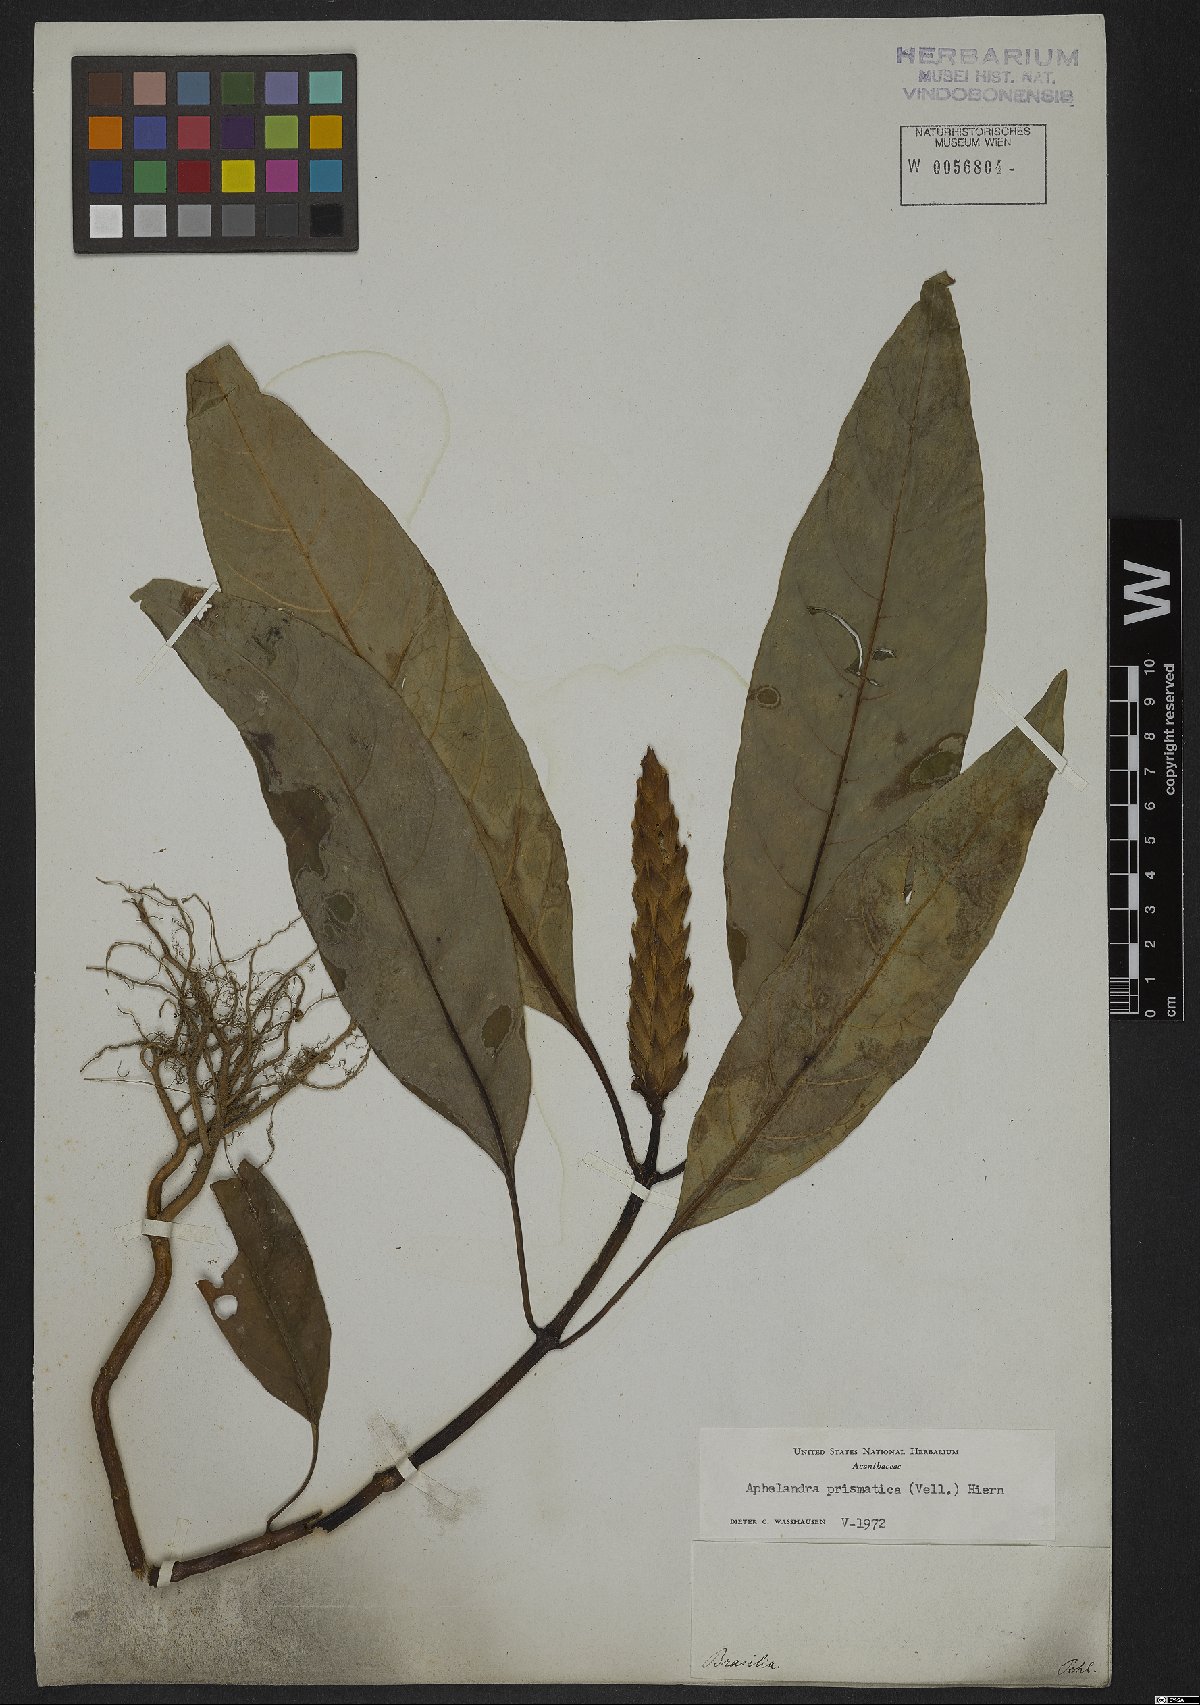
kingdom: Plantae
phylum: Tracheophyta
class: Magnoliopsida
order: Lamiales
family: Acanthaceae
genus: Aphelandra
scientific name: Aphelandra prismatica
